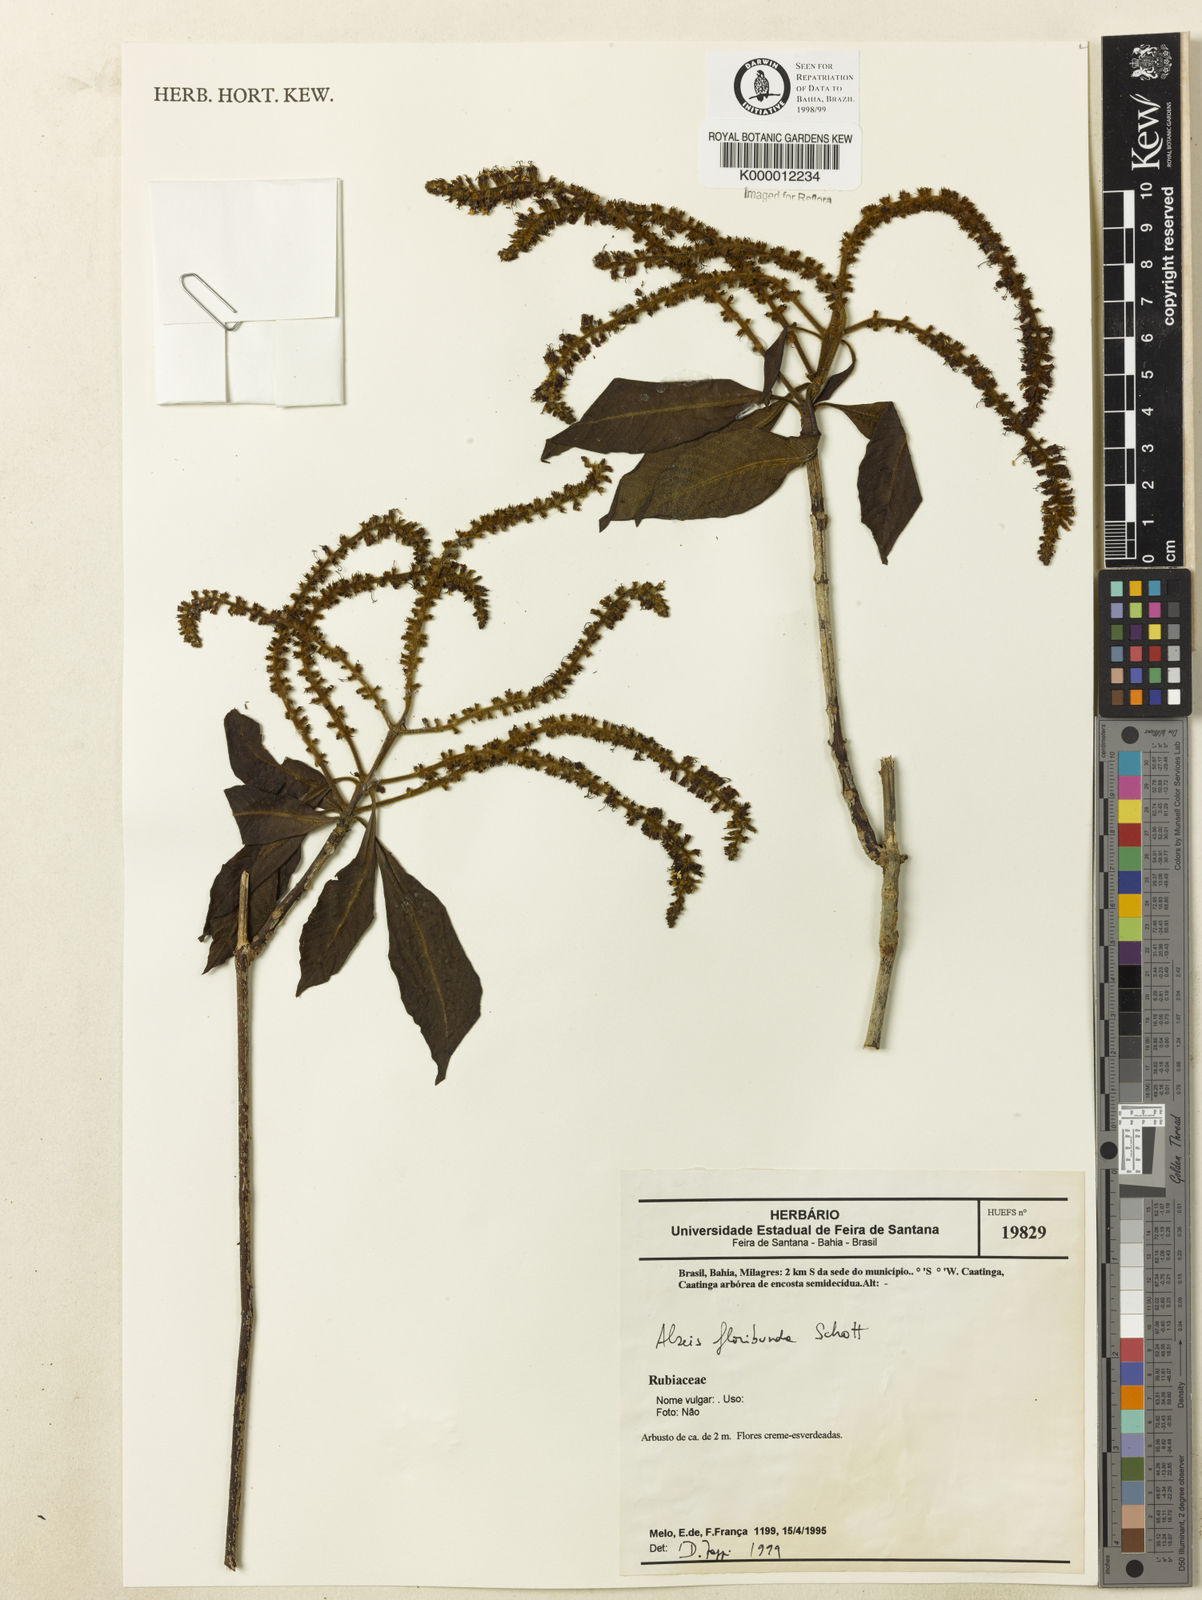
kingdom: Plantae
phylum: Tracheophyta
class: Magnoliopsida
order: Gentianales
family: Rubiaceae
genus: Alseis
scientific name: Alseis floribunda
